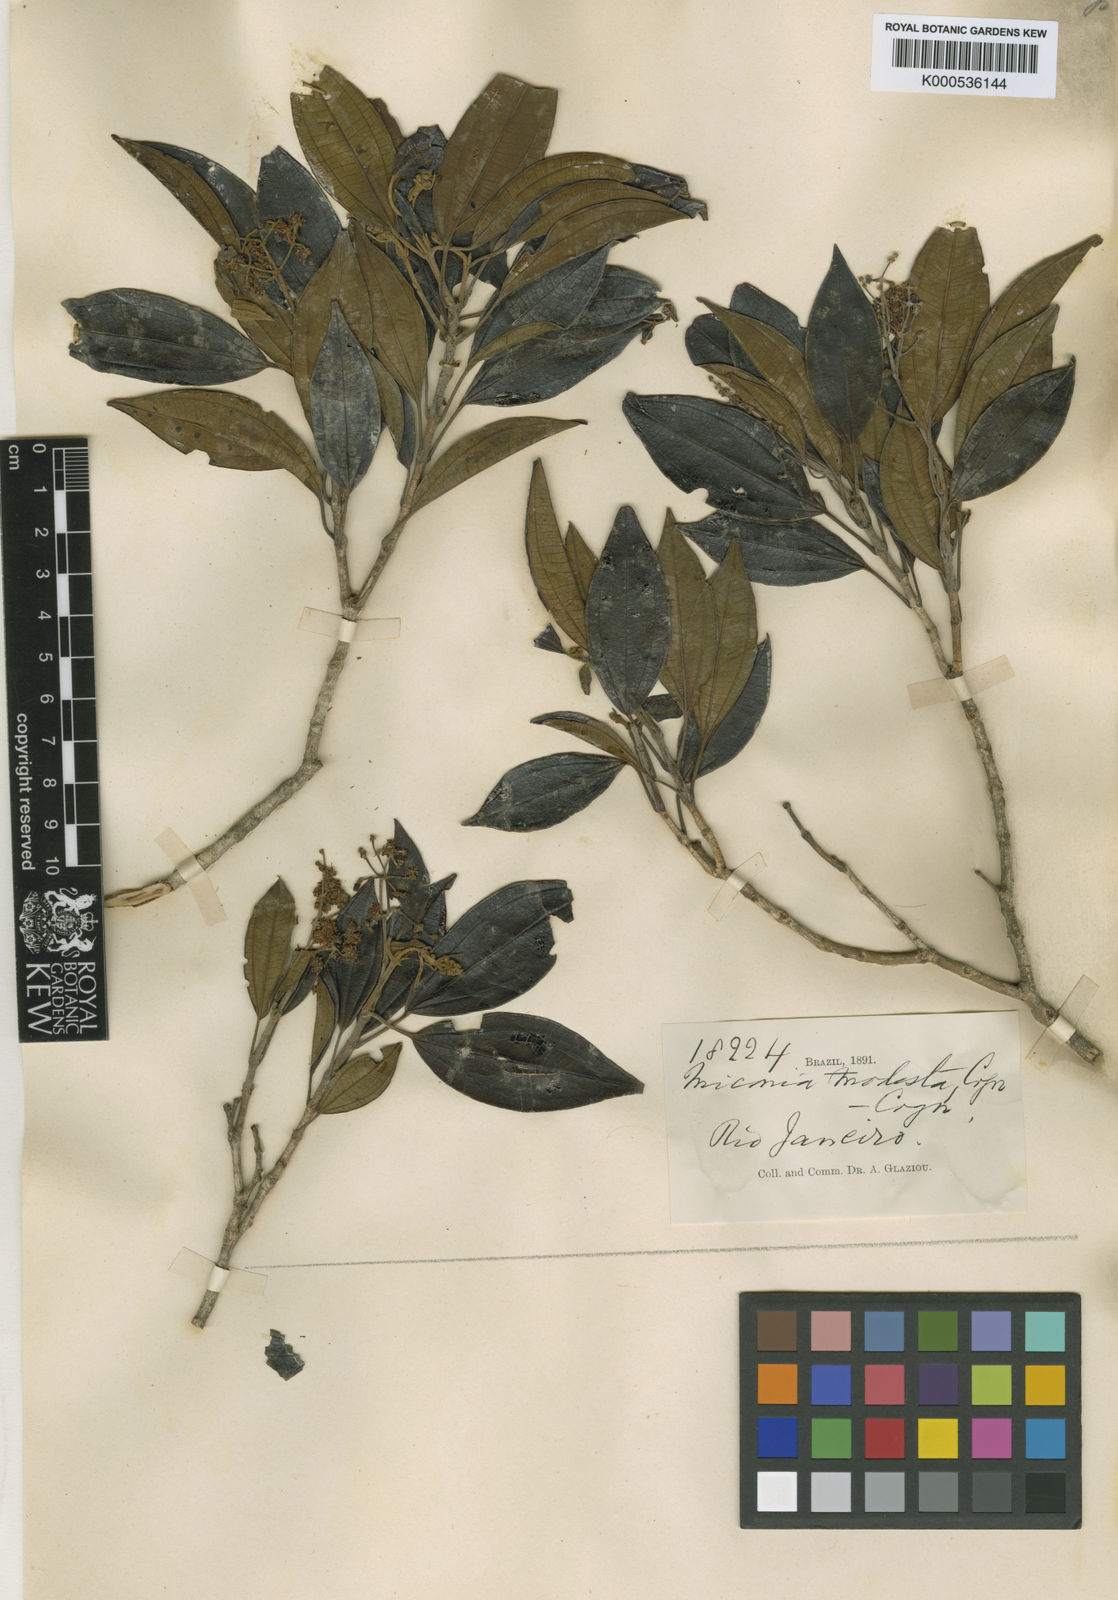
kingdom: Plantae
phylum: Tracheophyta
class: Magnoliopsida
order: Myrtales
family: Melastomataceae
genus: Miconia
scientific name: Miconia molesta
